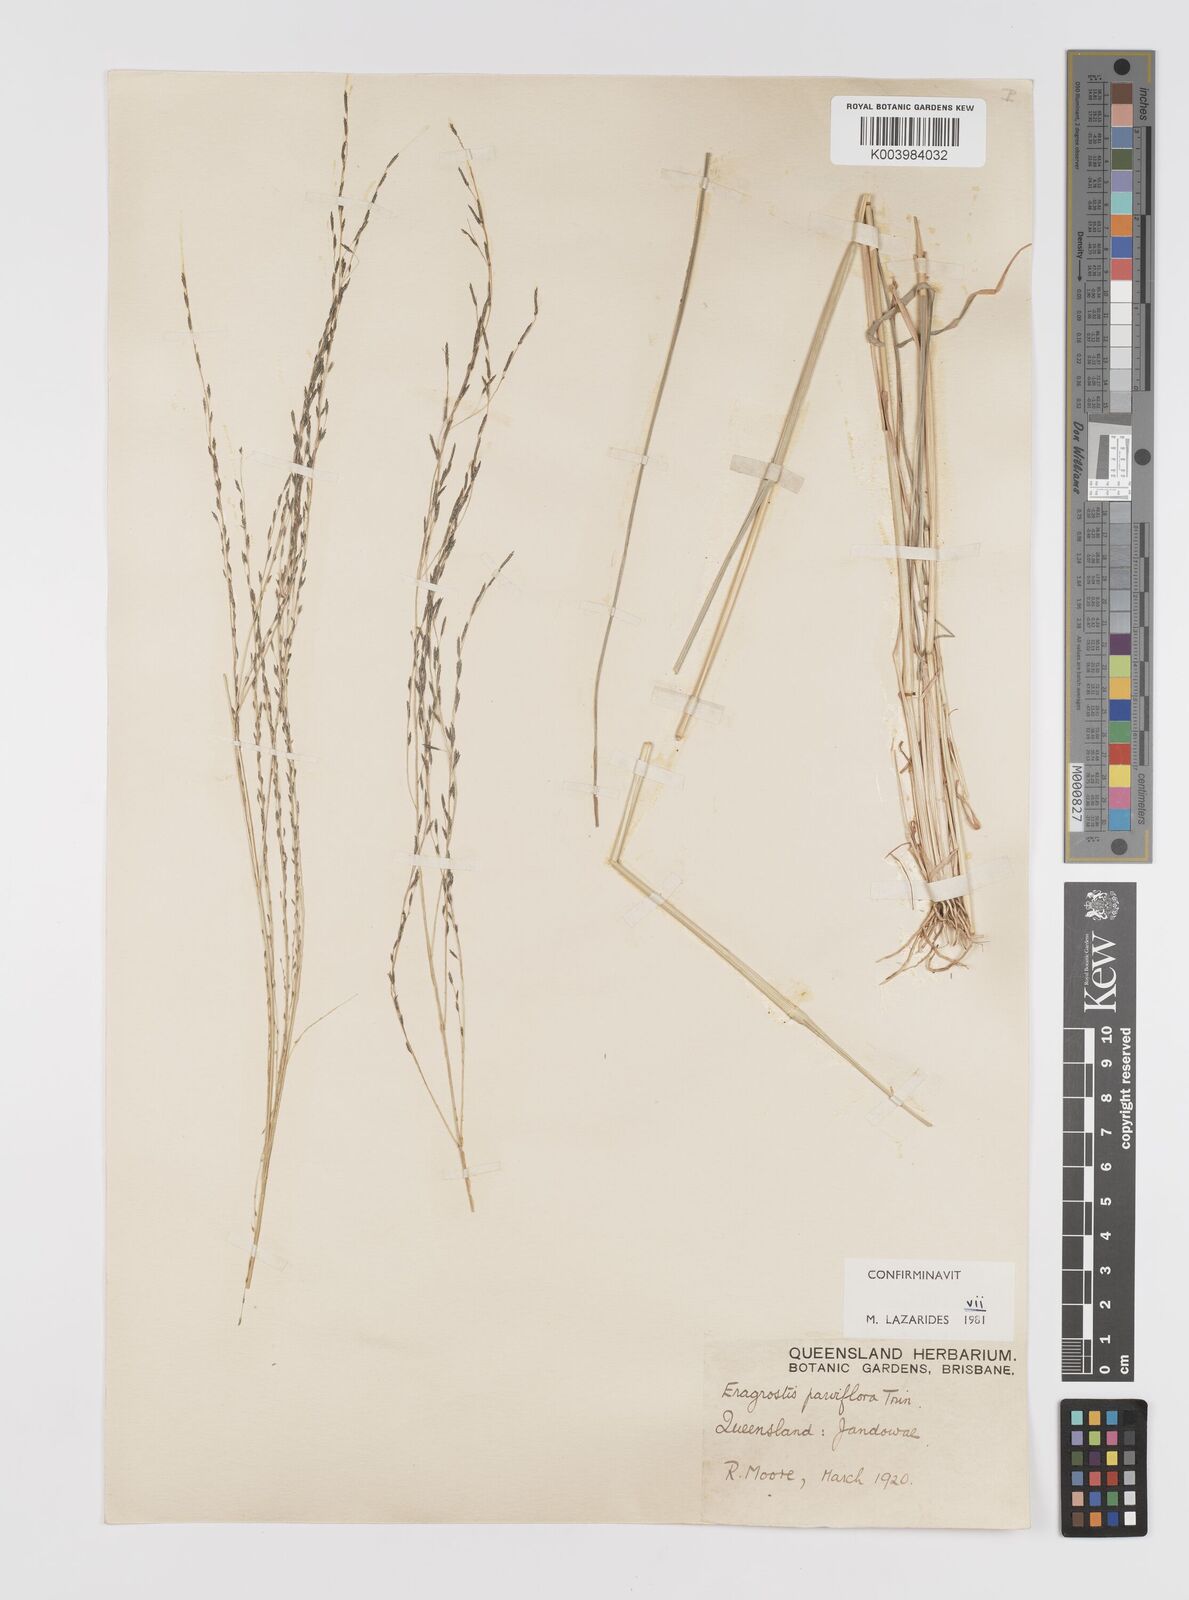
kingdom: Plantae
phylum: Tracheophyta
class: Liliopsida
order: Poales
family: Poaceae
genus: Eragrostis
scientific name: Eragrostis parviflora
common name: Weeping love-grass
